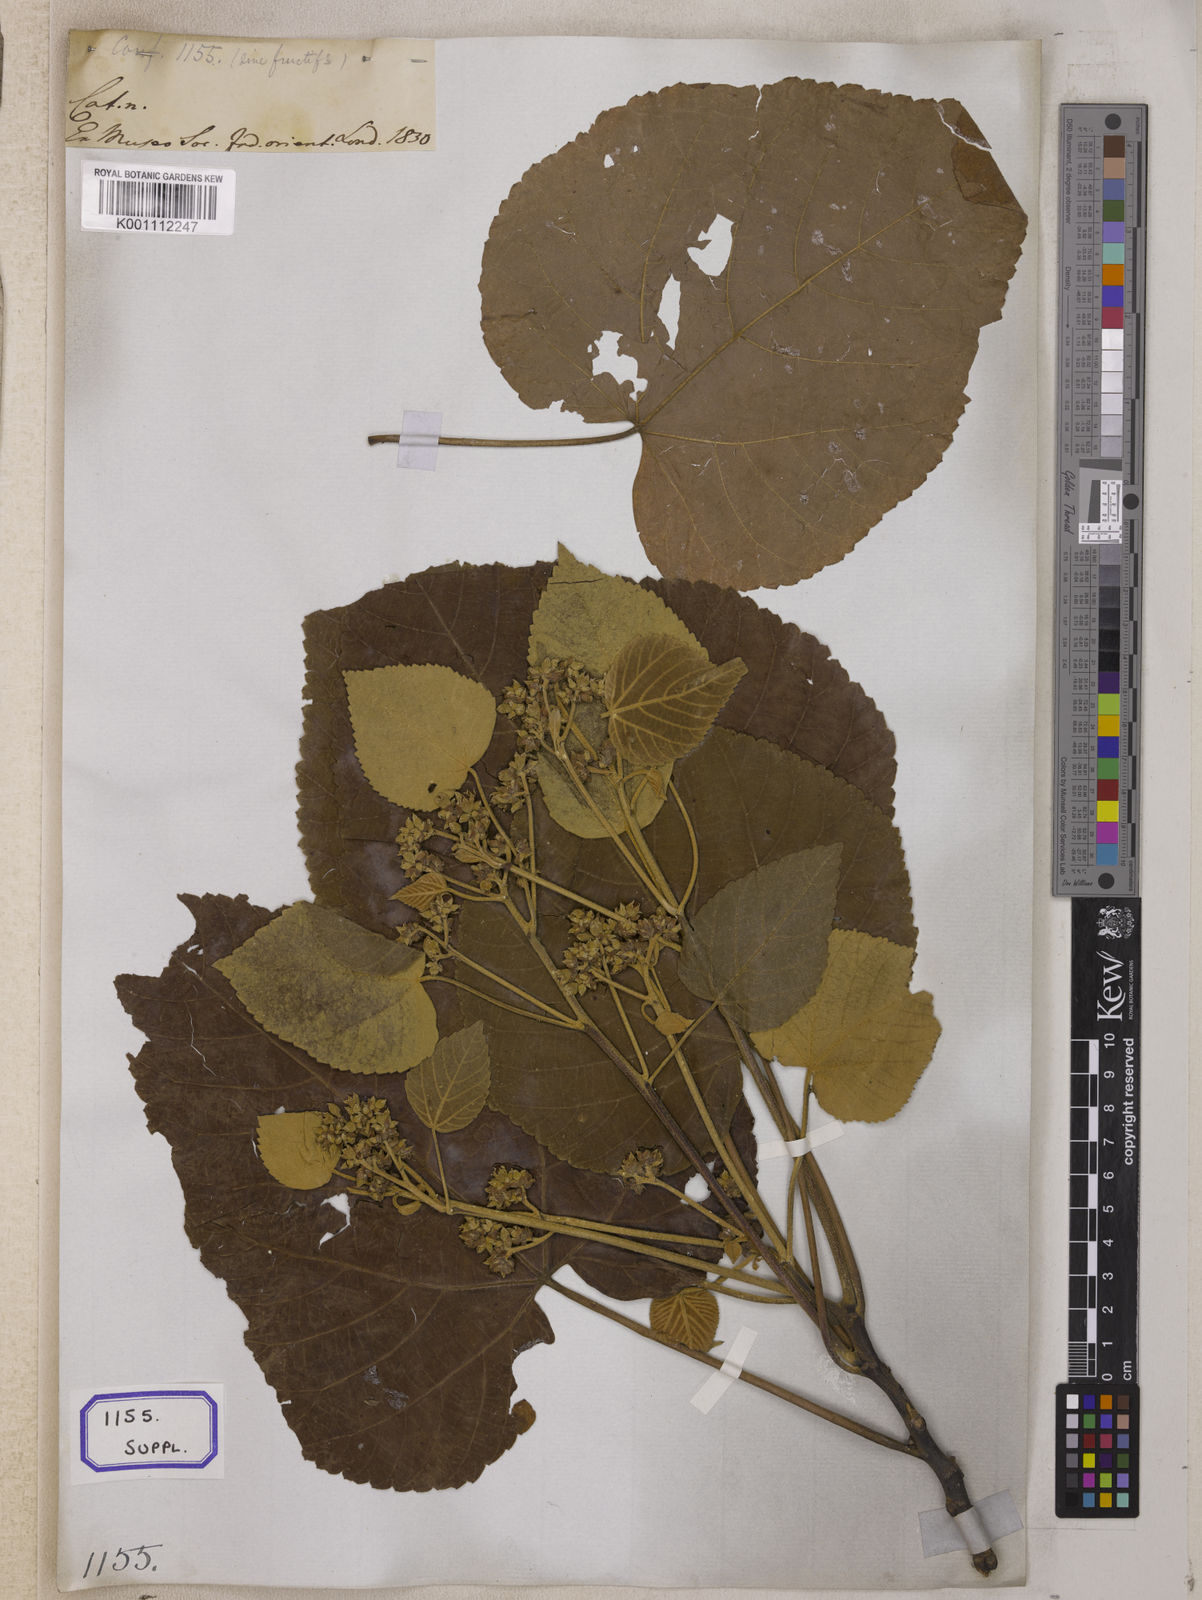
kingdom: Plantae
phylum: Tracheophyta
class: Magnoliopsida
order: Malvales
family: Malvaceae
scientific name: Malvaceae
